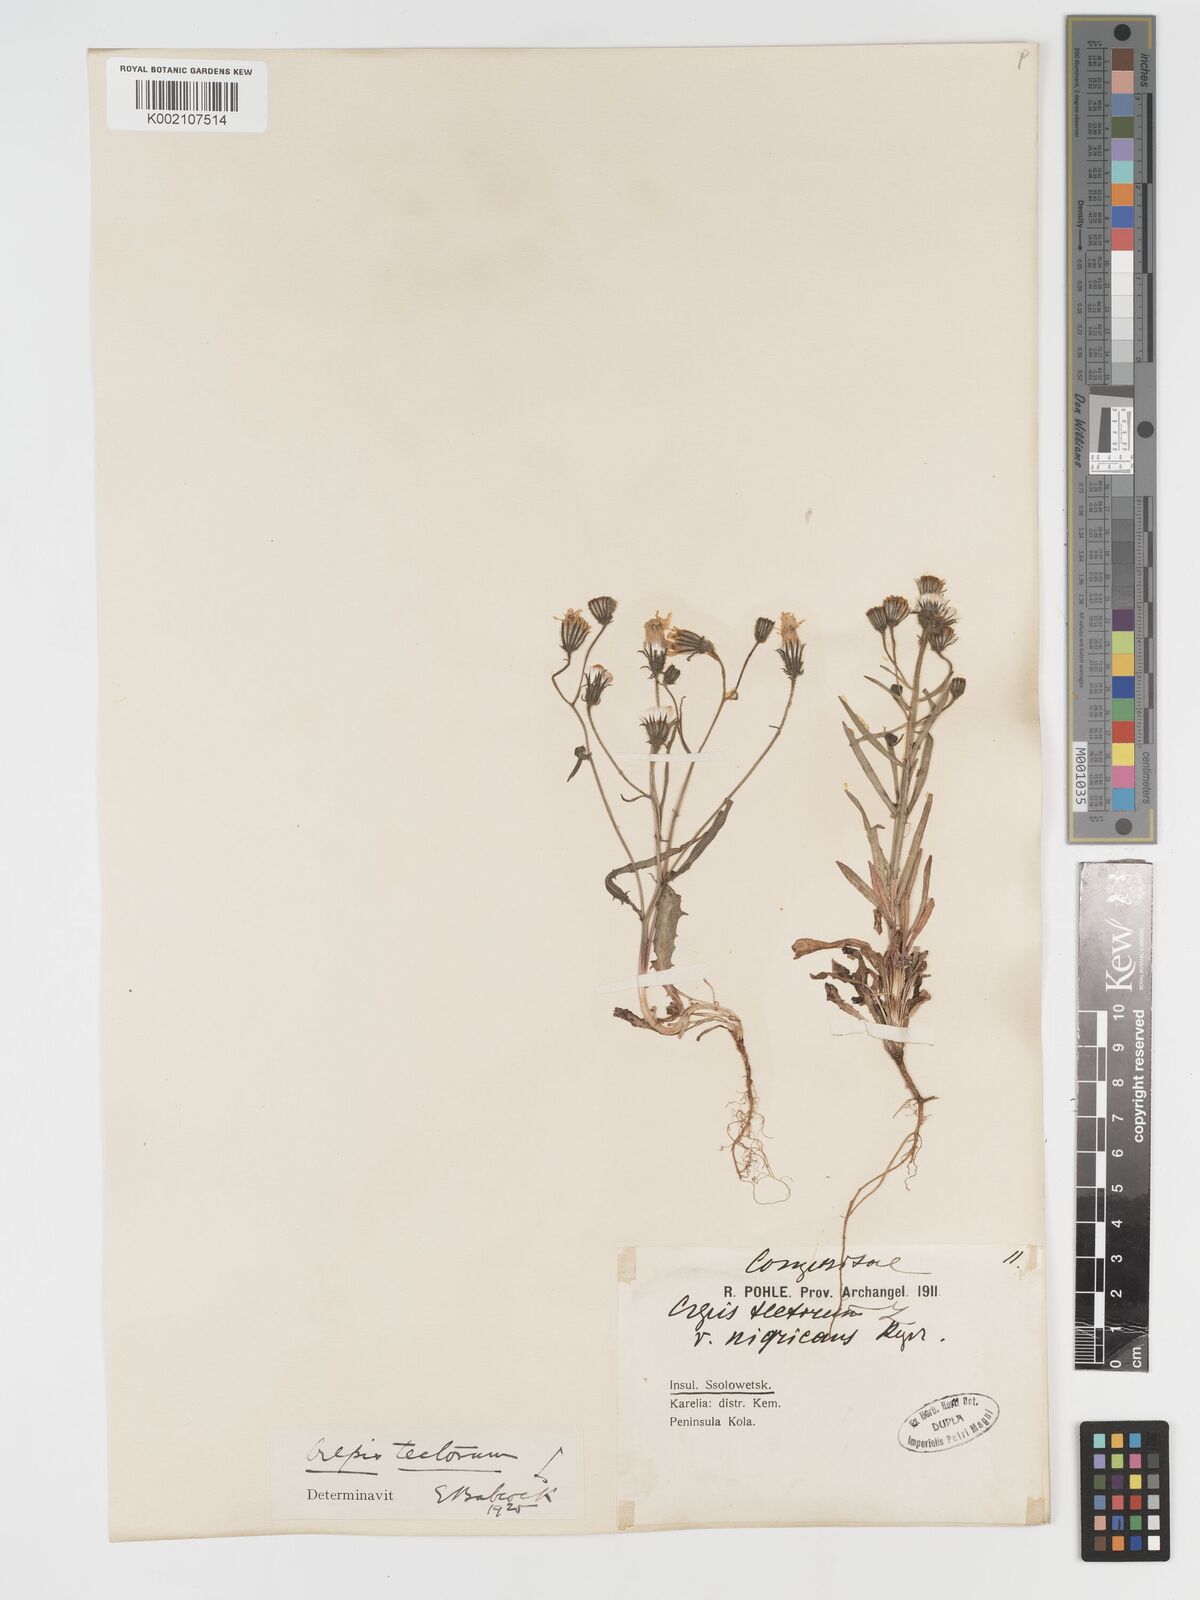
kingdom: Plantae
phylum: Tracheophyta
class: Magnoliopsida
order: Asterales
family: Asteraceae
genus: Crepis
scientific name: Crepis tectorum
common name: Narrow-leaved hawk's-beard
